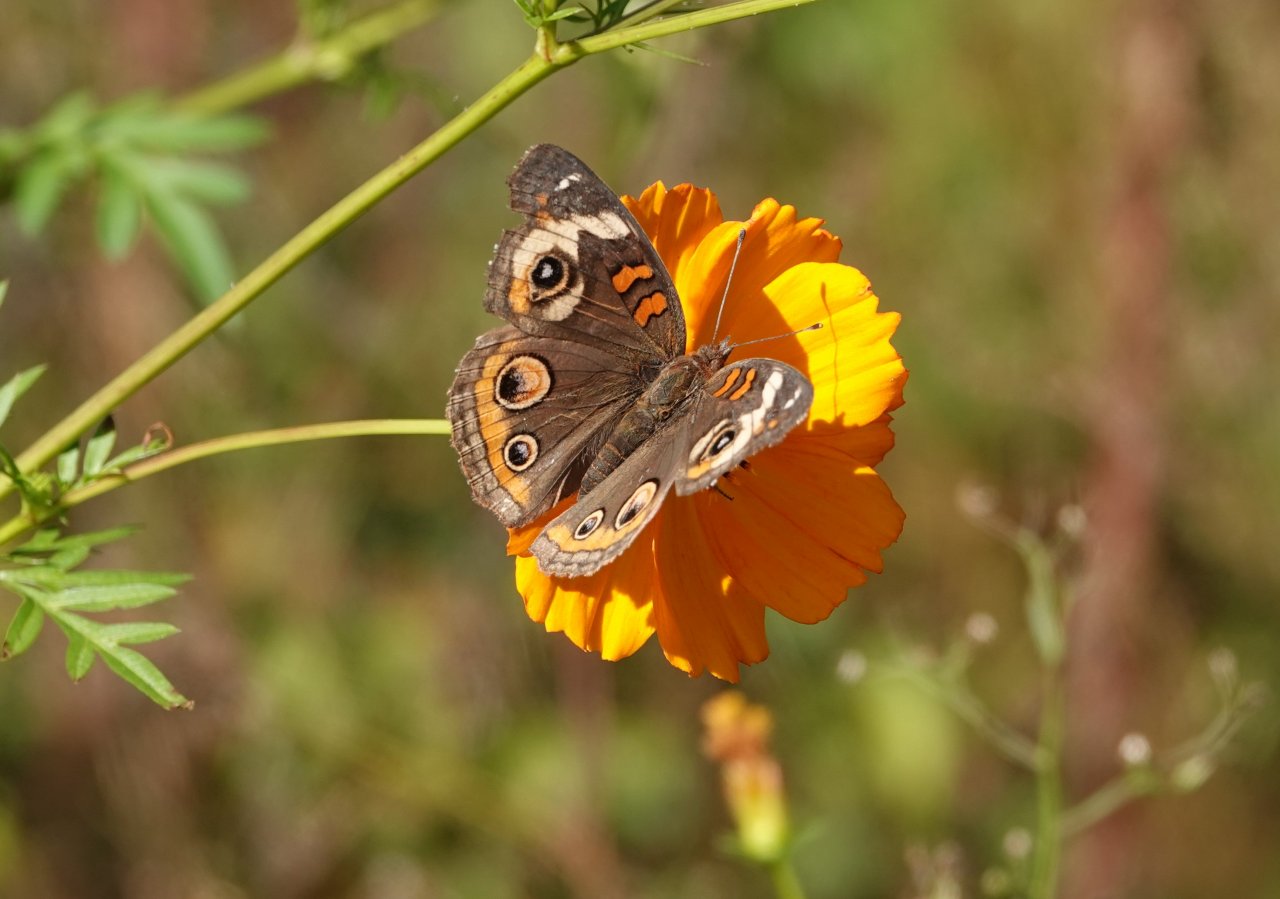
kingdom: Animalia
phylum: Arthropoda
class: Insecta
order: Lepidoptera
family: Nymphalidae
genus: Junonia
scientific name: Junonia coenia
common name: Common Buckeye
